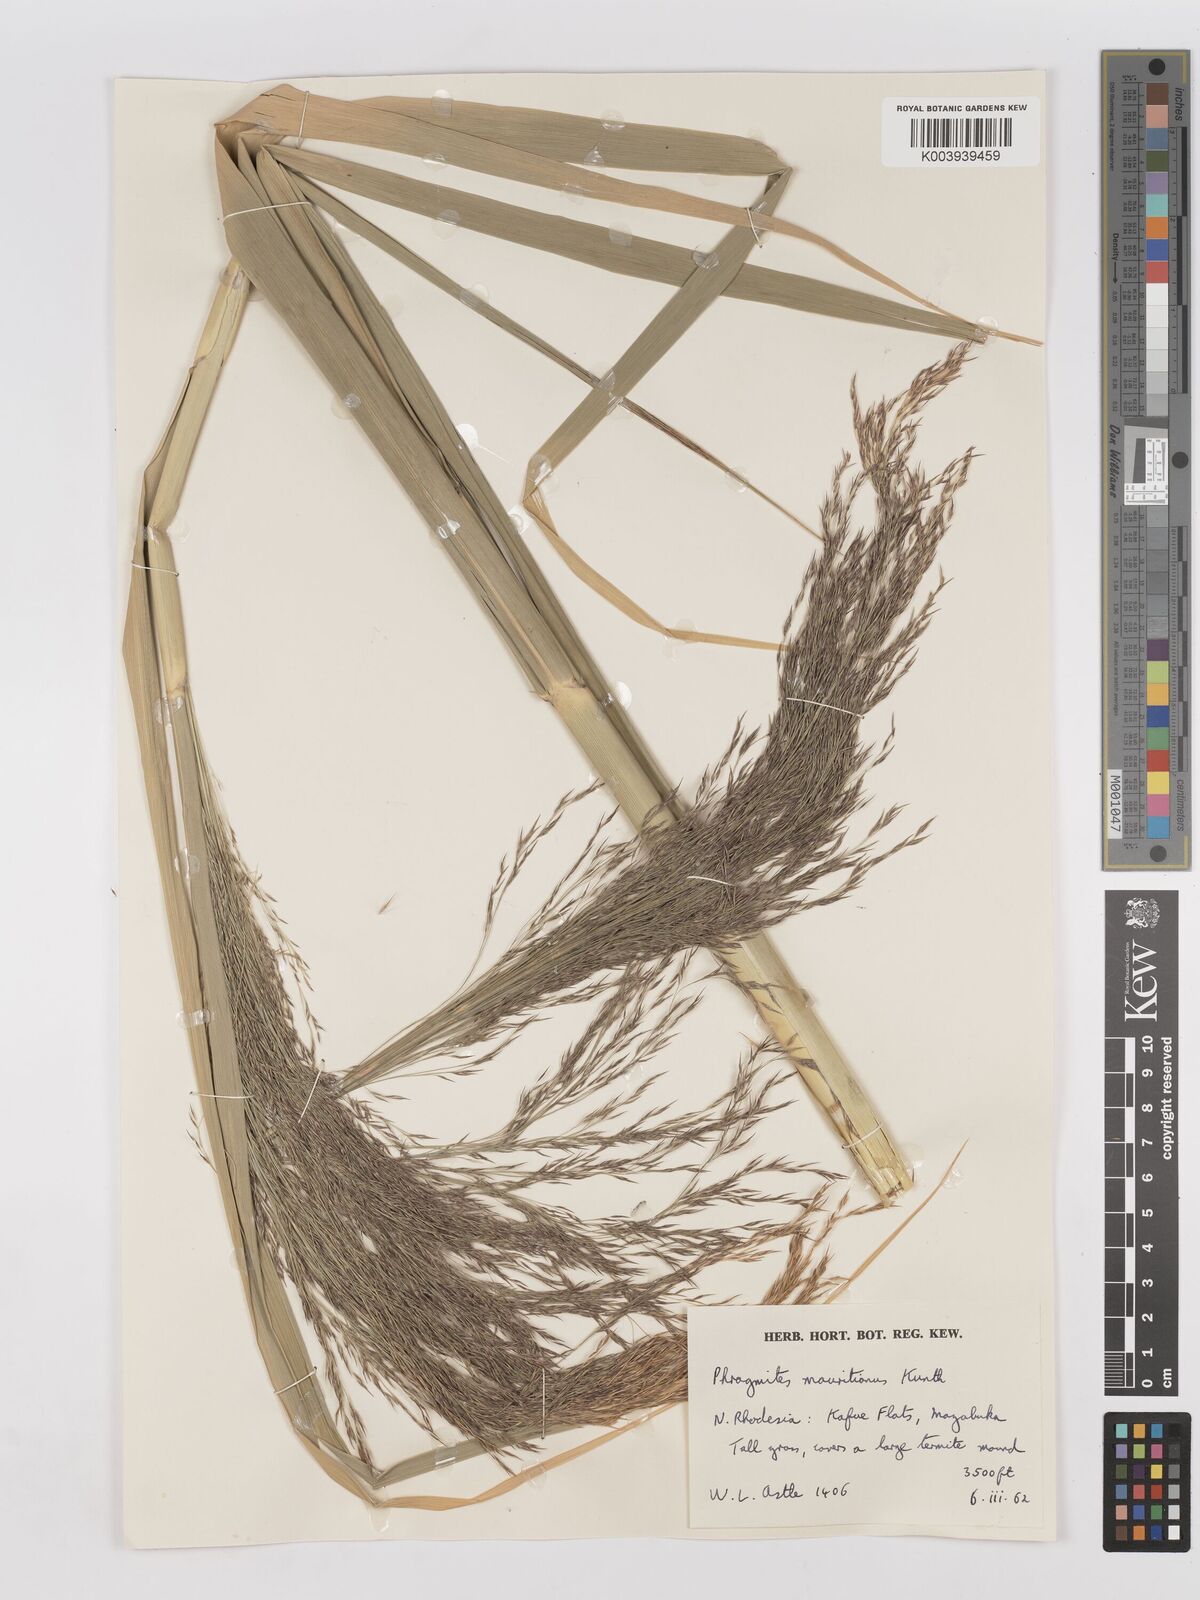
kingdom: Plantae
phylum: Tracheophyta
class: Liliopsida
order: Poales
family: Poaceae
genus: Phragmites
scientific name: Phragmites mauritianus
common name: Reed grass
